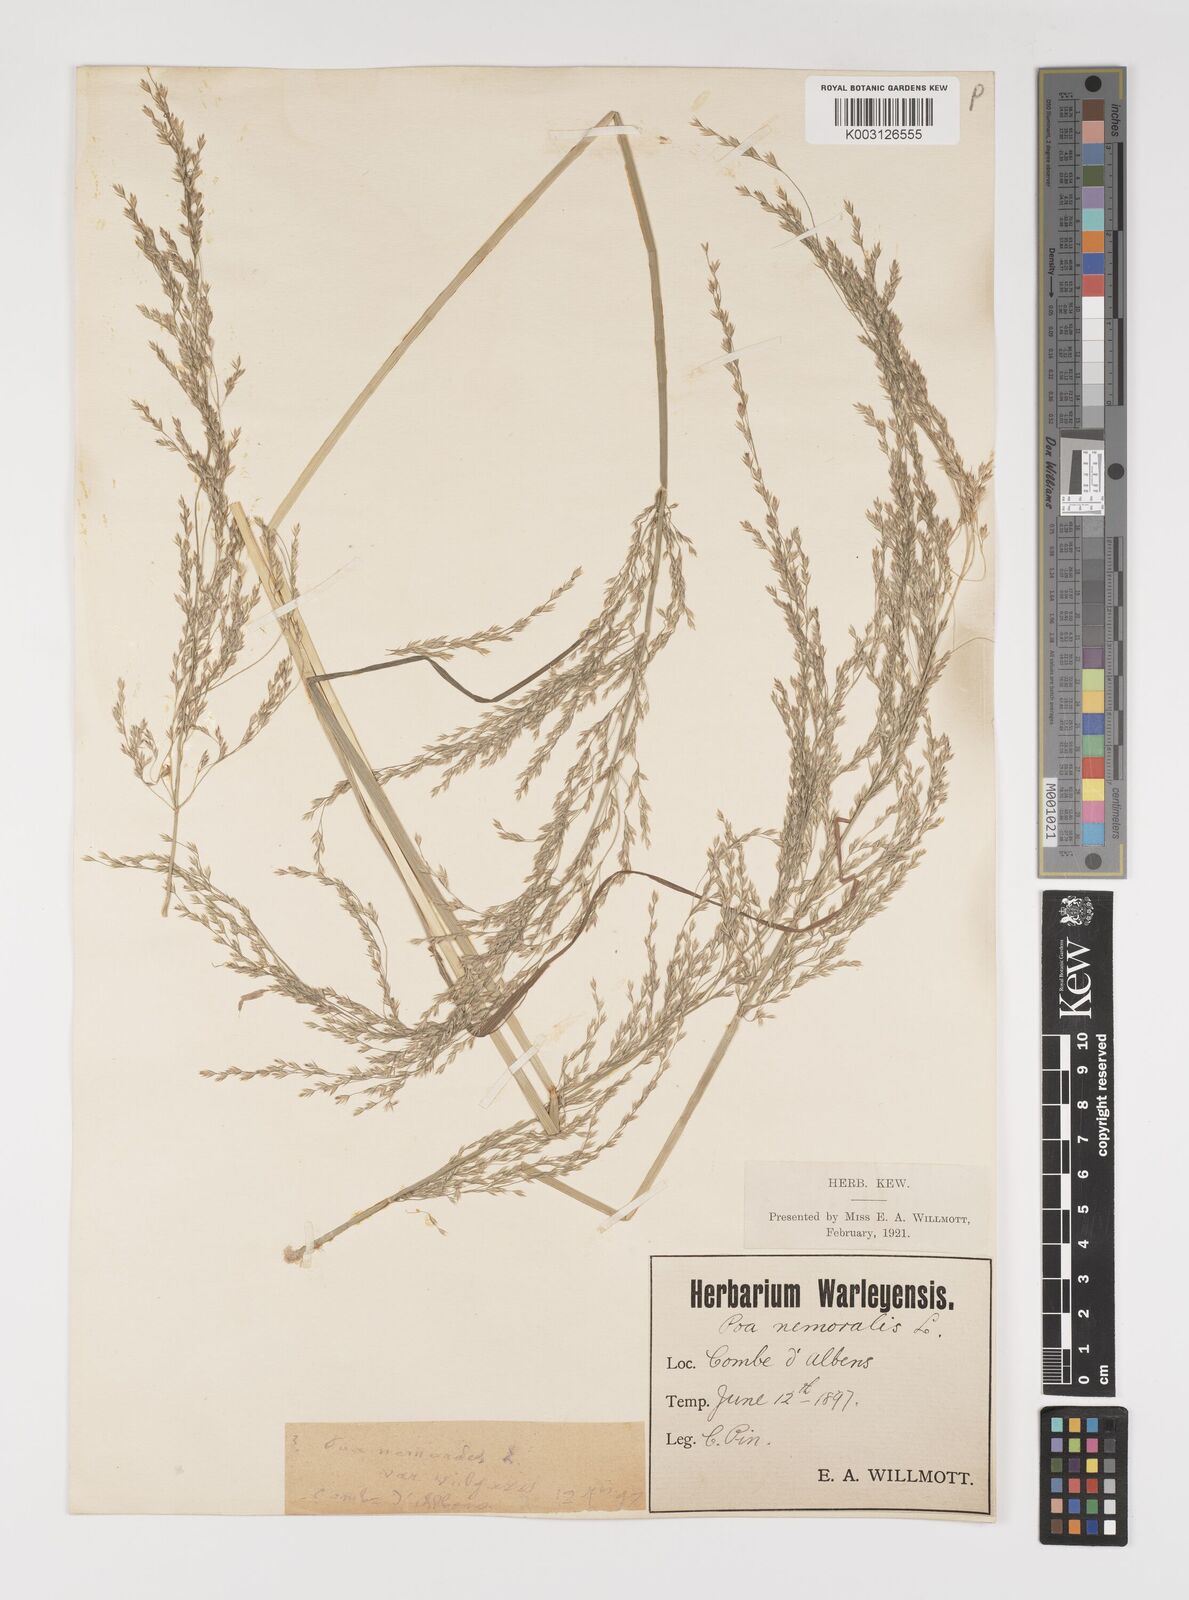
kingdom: Plantae
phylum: Tracheophyta
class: Liliopsida
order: Poales
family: Poaceae
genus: Poa
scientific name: Poa nemoralis
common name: Wood bluegrass
